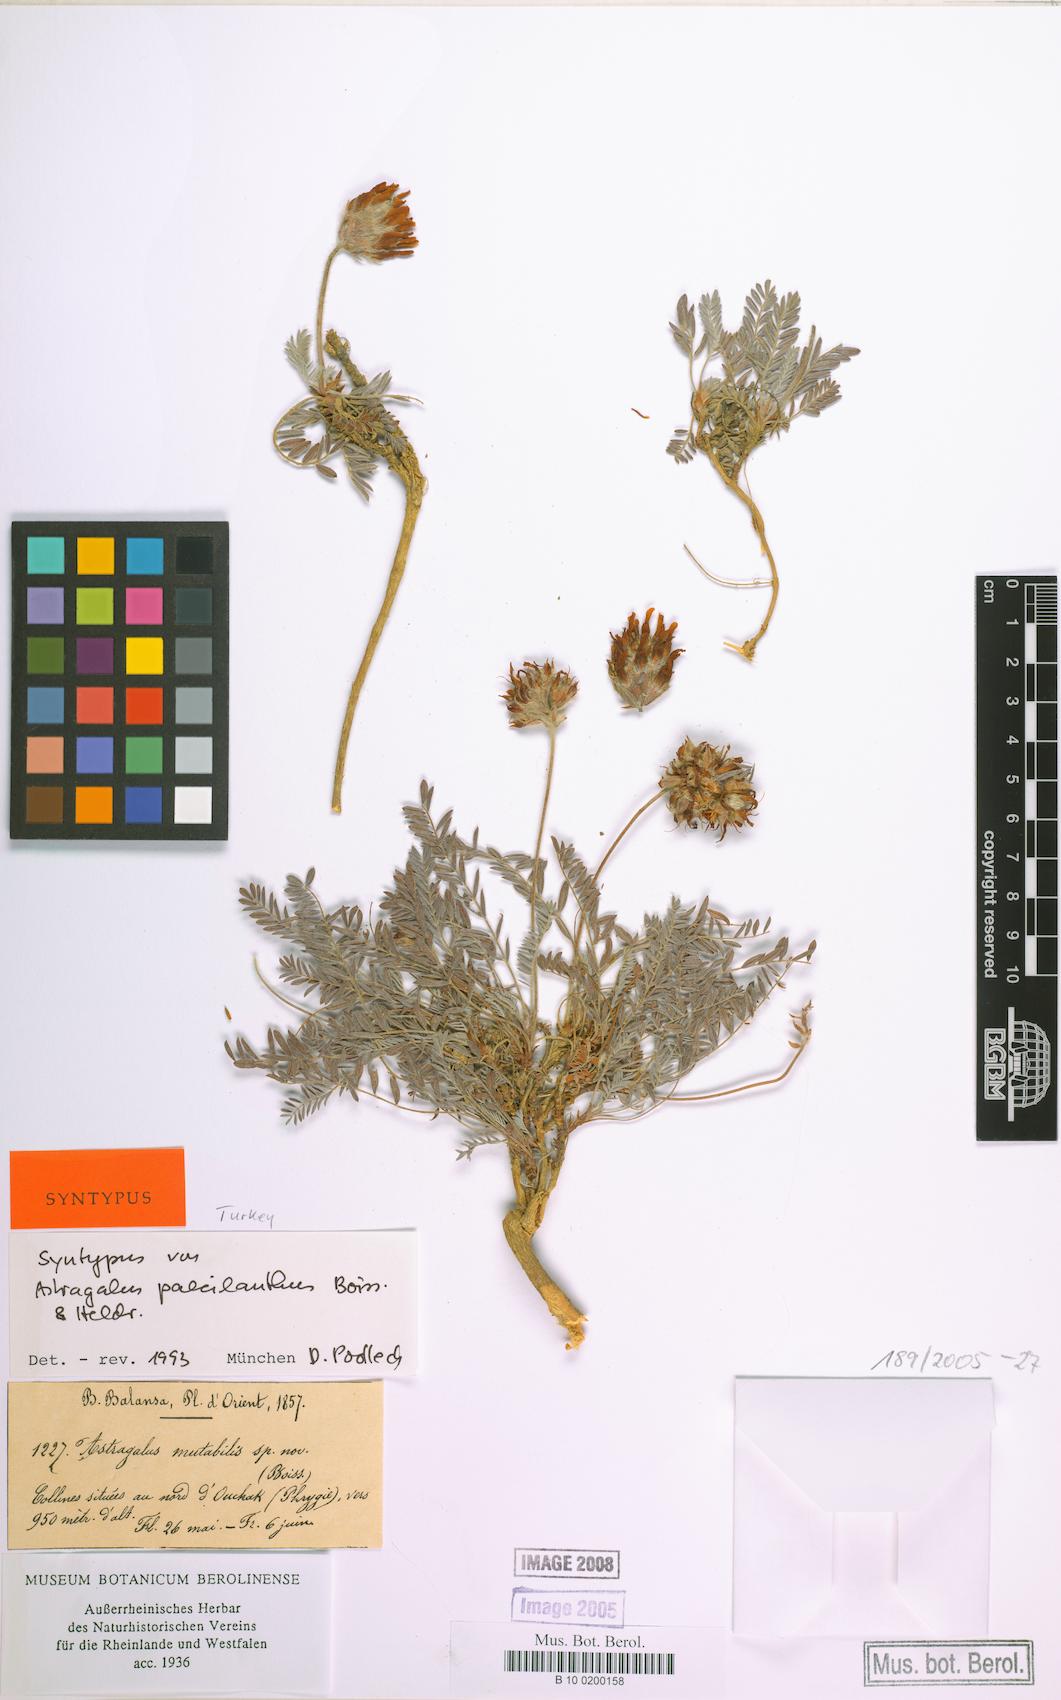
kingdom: Plantae
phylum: Tracheophyta
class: Magnoliopsida
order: Fabales
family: Fabaceae
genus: Astragalus
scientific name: Astragalus sibthorpianus
